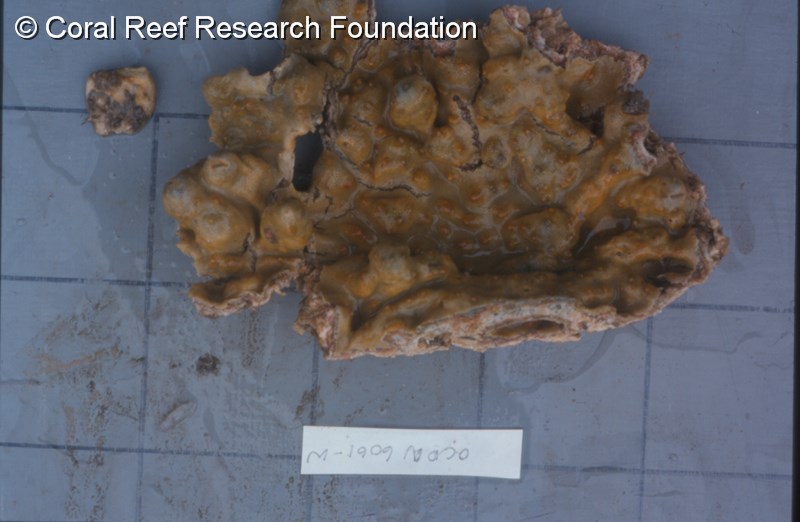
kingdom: Animalia
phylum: Chordata
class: Ascidiacea
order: Aplousobranchia
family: Didemnidae
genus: Trididemnum
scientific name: Trididemnum
